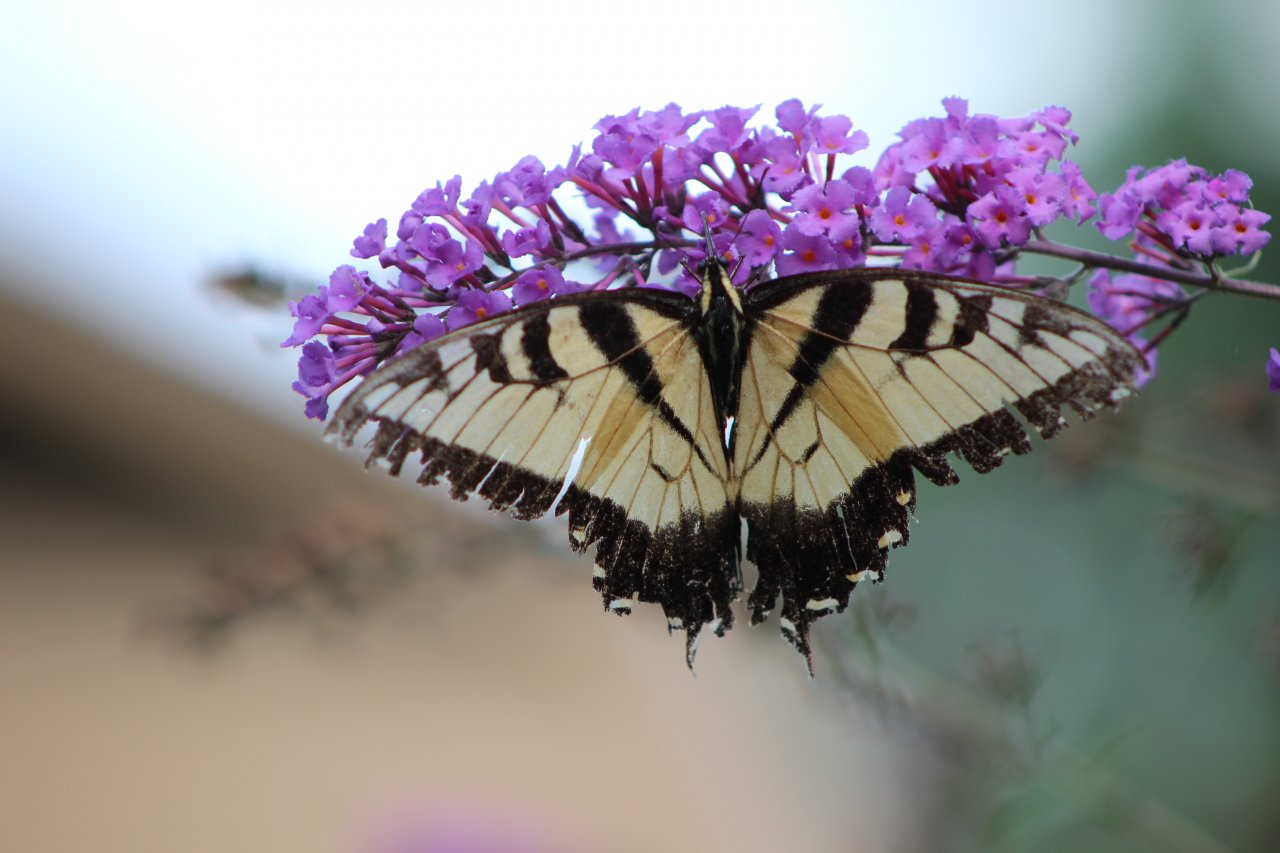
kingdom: Animalia
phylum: Arthropoda
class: Insecta
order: Lepidoptera
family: Papilionidae
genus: Pterourus
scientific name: Pterourus glaucus
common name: Eastern Tiger Swallowtail
